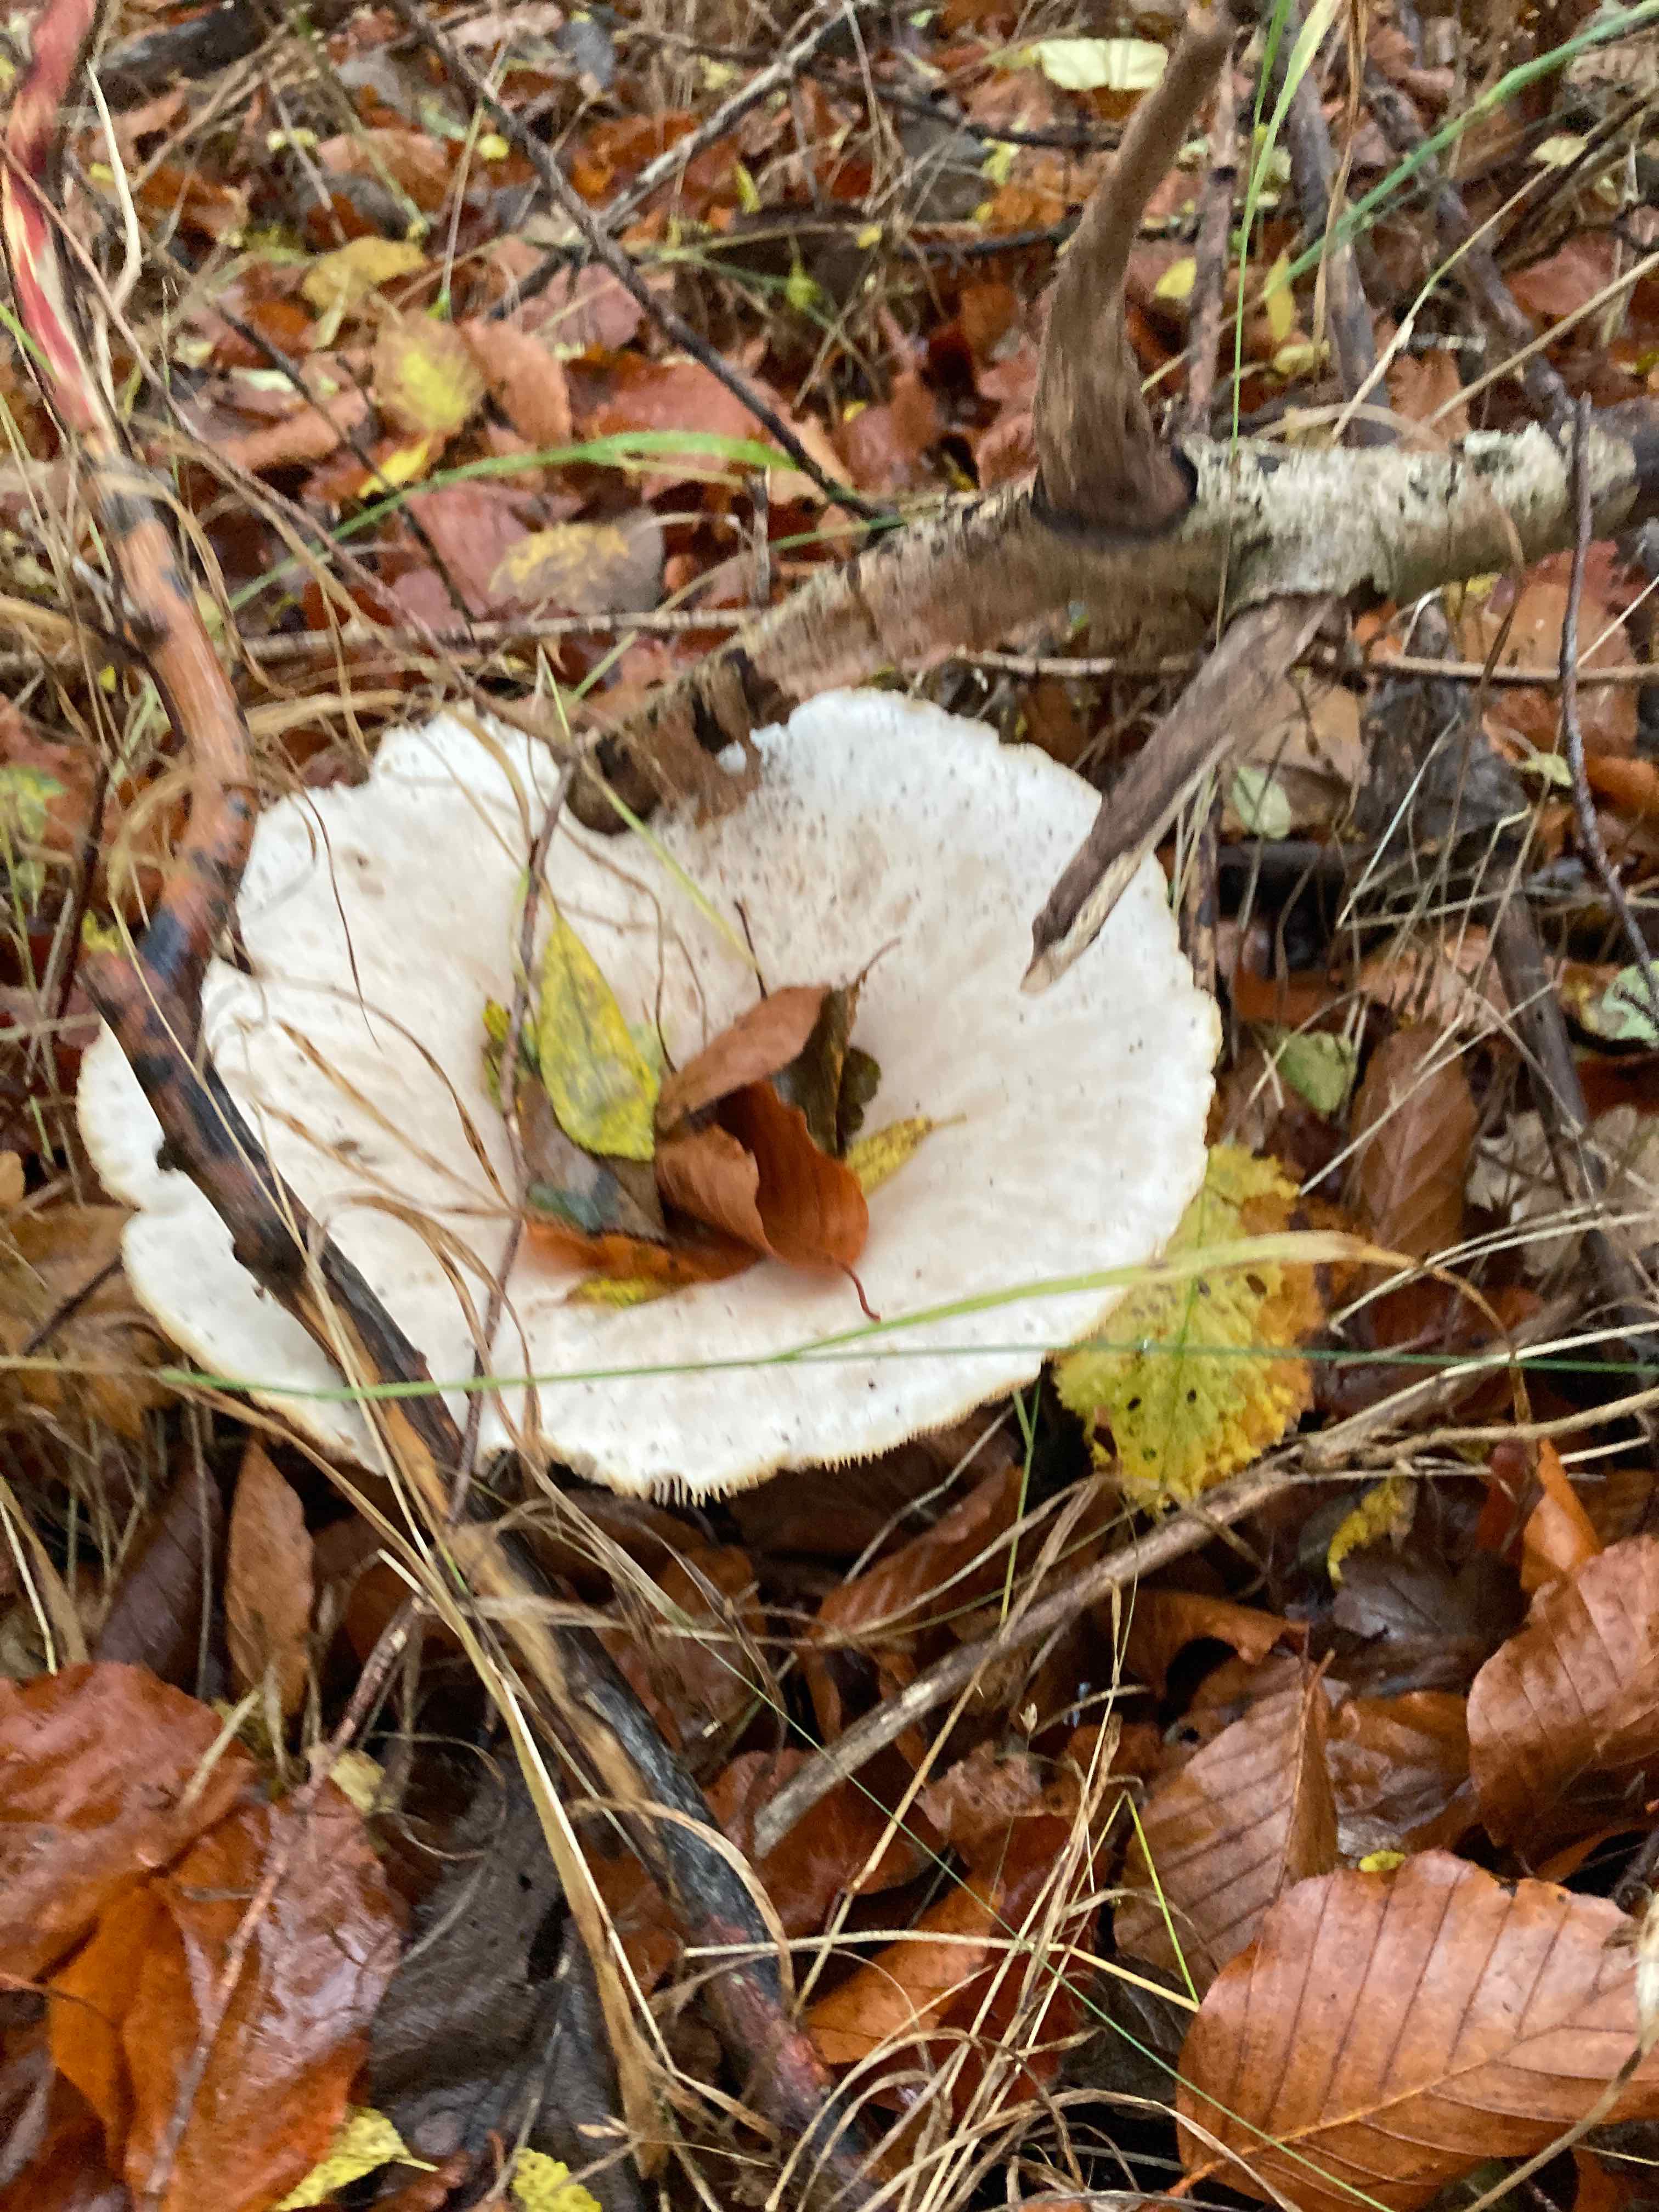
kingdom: Fungi
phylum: Basidiomycota
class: Agaricomycetes
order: Agaricales
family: Tricholomataceae
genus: Infundibulicybe
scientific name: Infundibulicybe geotropa
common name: stor tragthat
